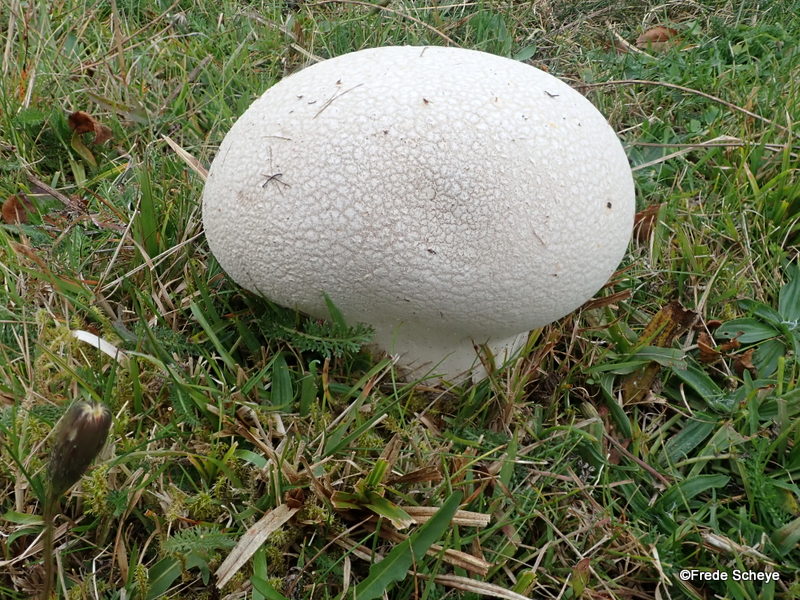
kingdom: Fungi
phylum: Basidiomycota
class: Agaricomycetes
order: Agaricales
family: Lycoperdaceae
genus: Bovistella
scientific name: Bovistella utriformis
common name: skællet støvbold
